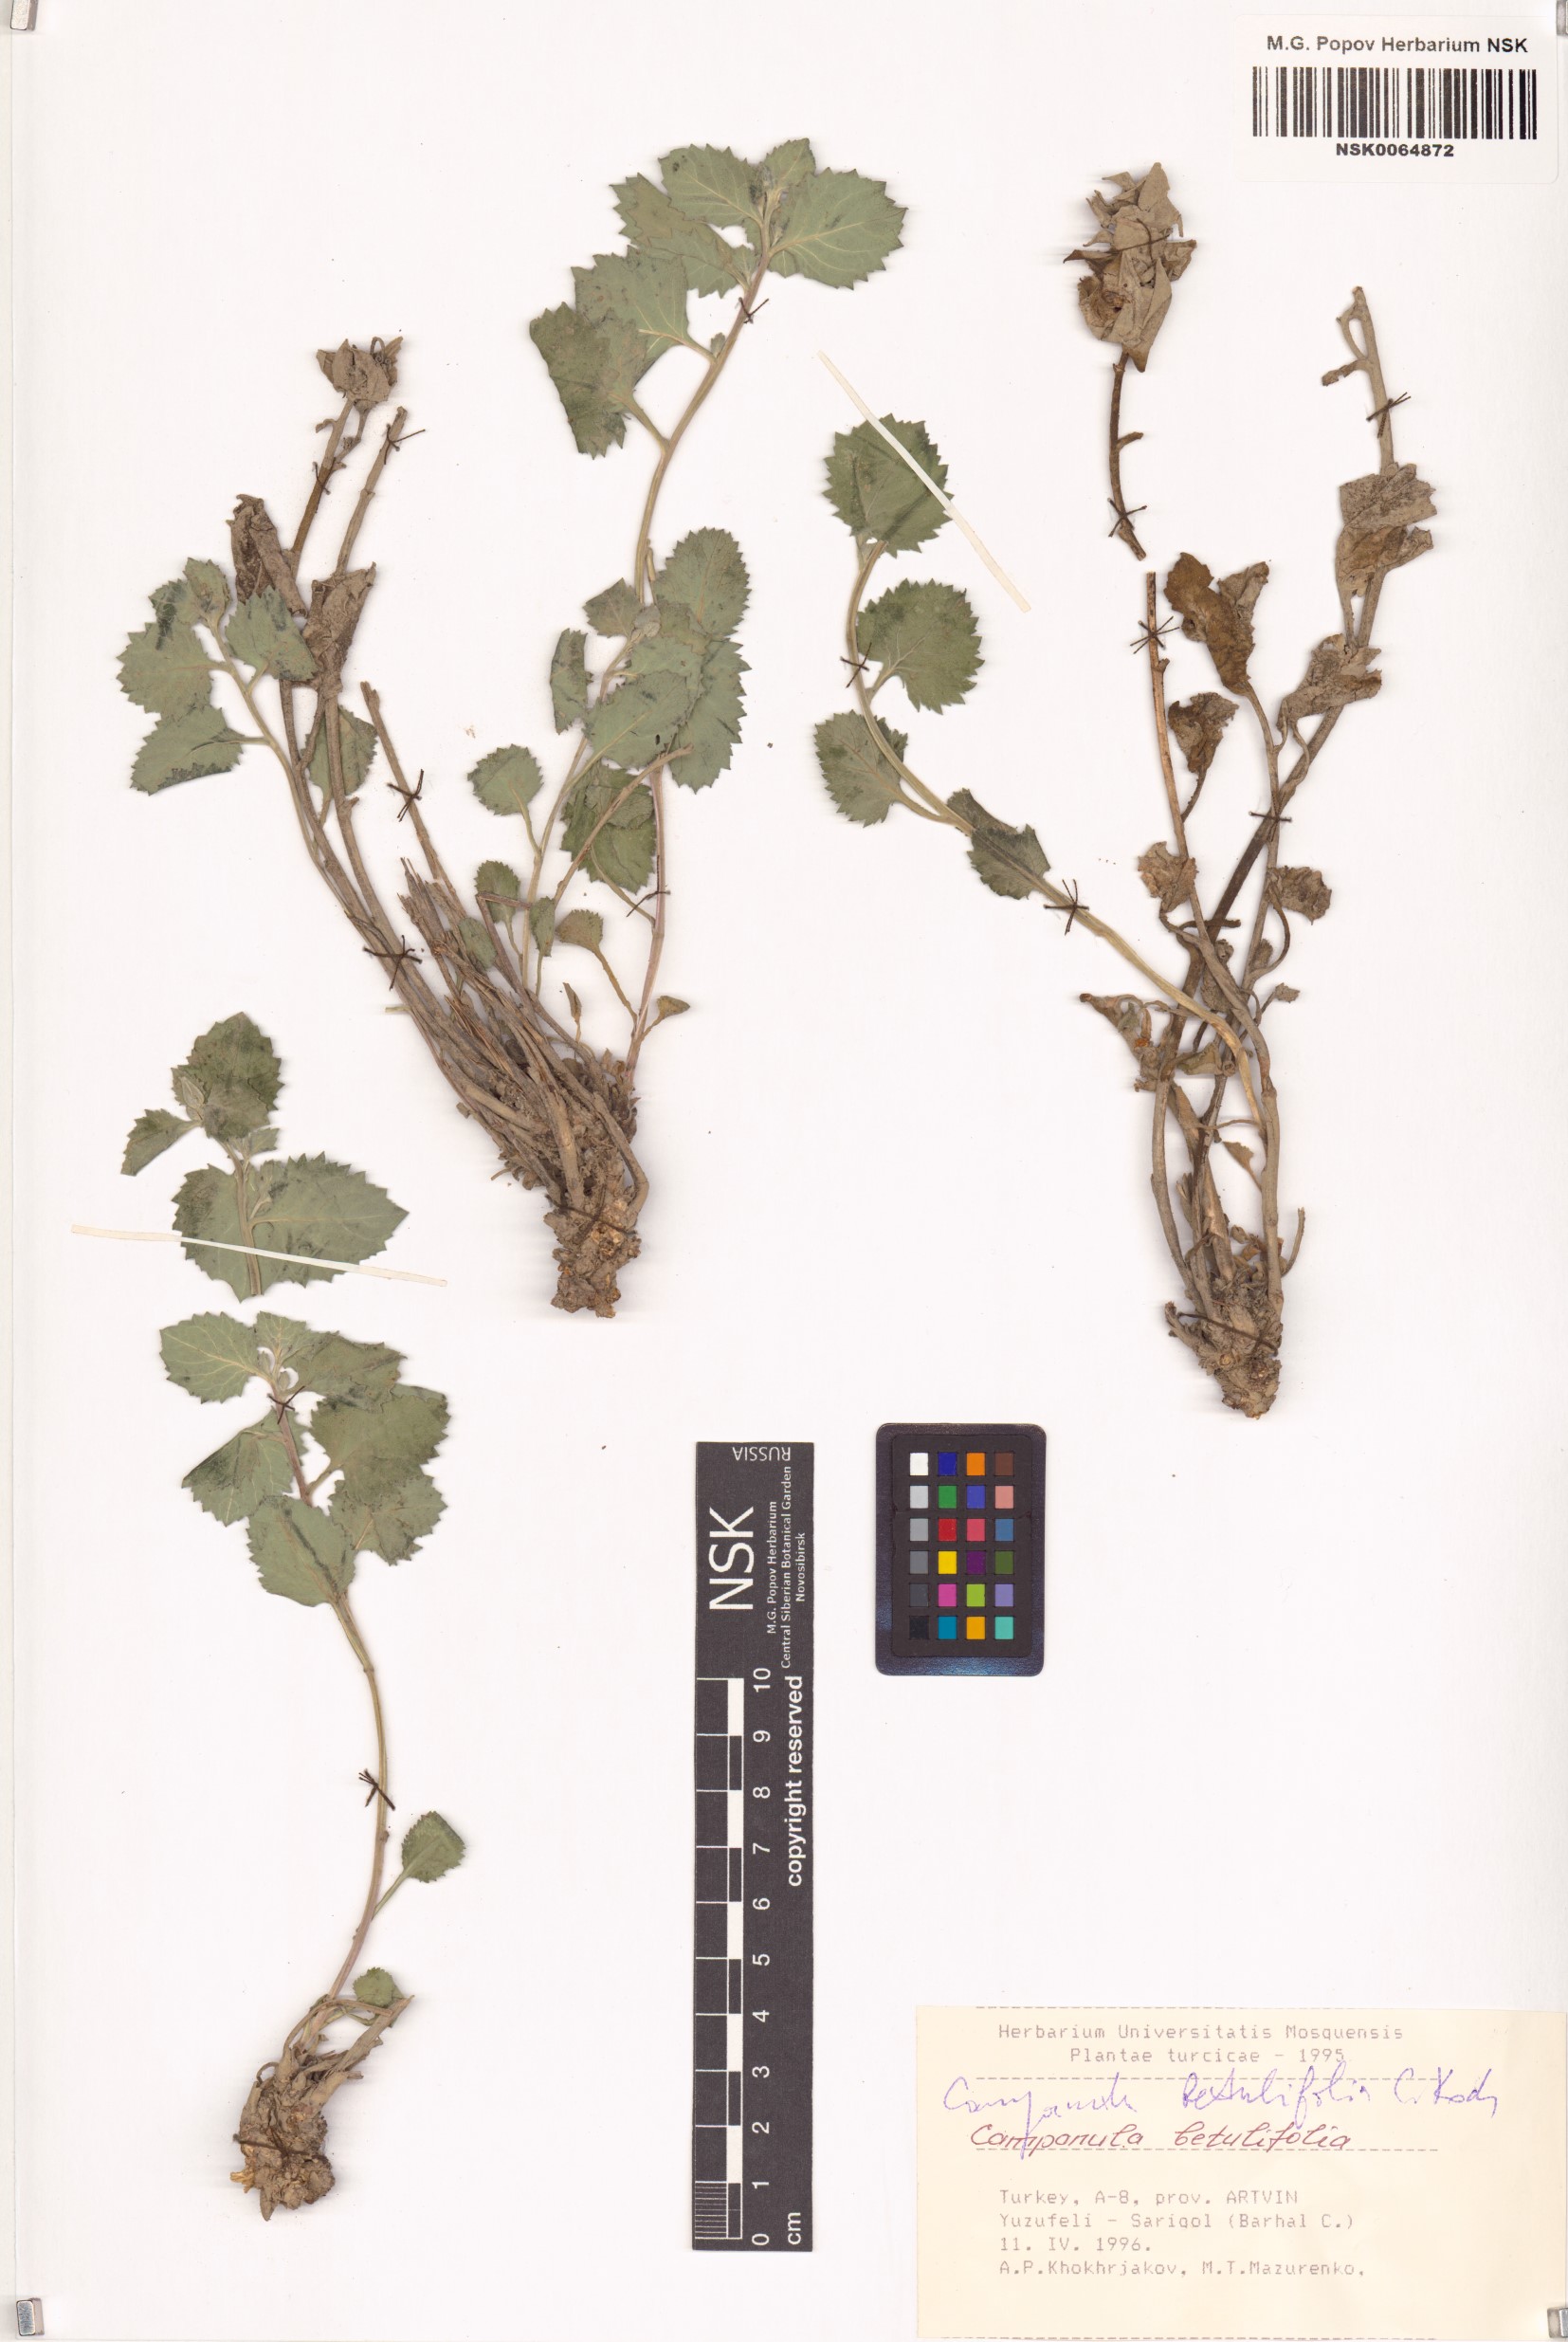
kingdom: Plantae
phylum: Tracheophyta
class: Magnoliopsida
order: Asterales
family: Campanulaceae
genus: Campanula
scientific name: Campanula betulifolia
